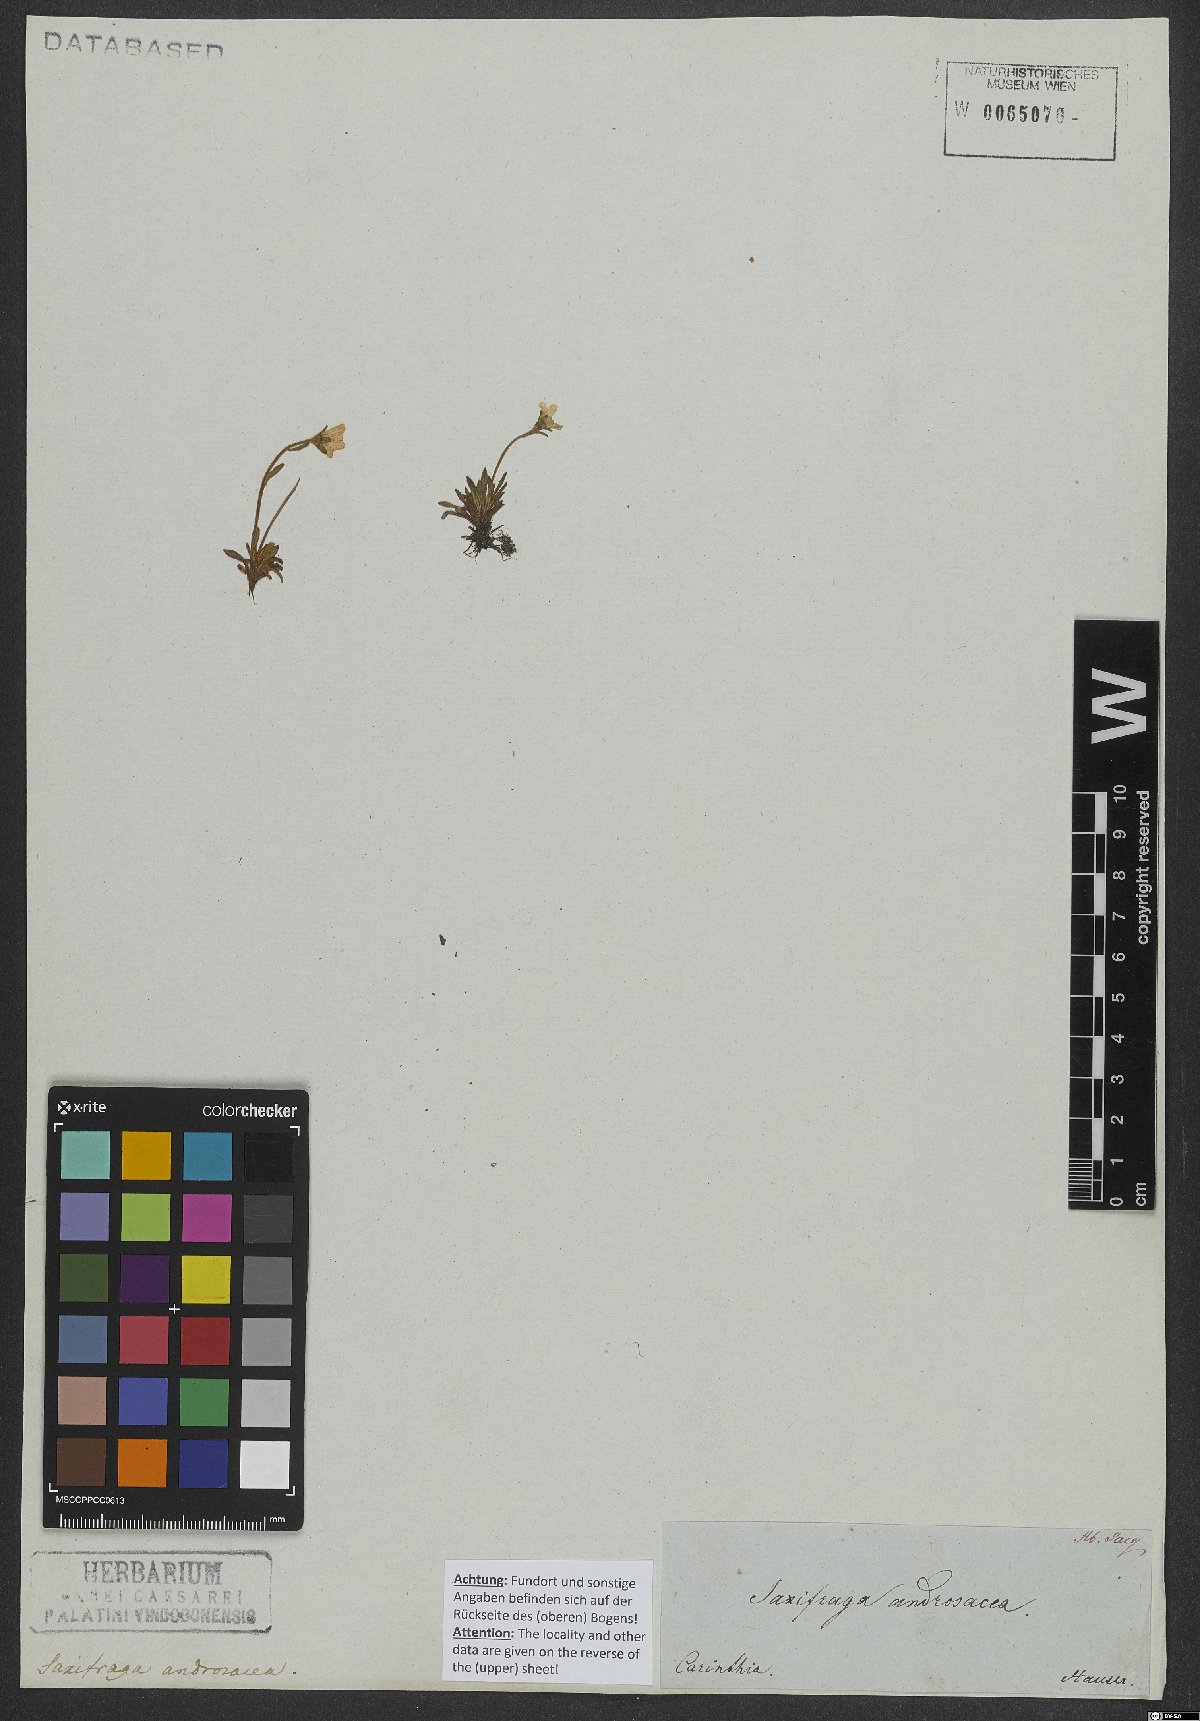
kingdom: Plantae
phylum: Tracheophyta
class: Magnoliopsida
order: Saxifragales
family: Saxifragaceae
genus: Saxifraga
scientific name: Saxifraga moschata
